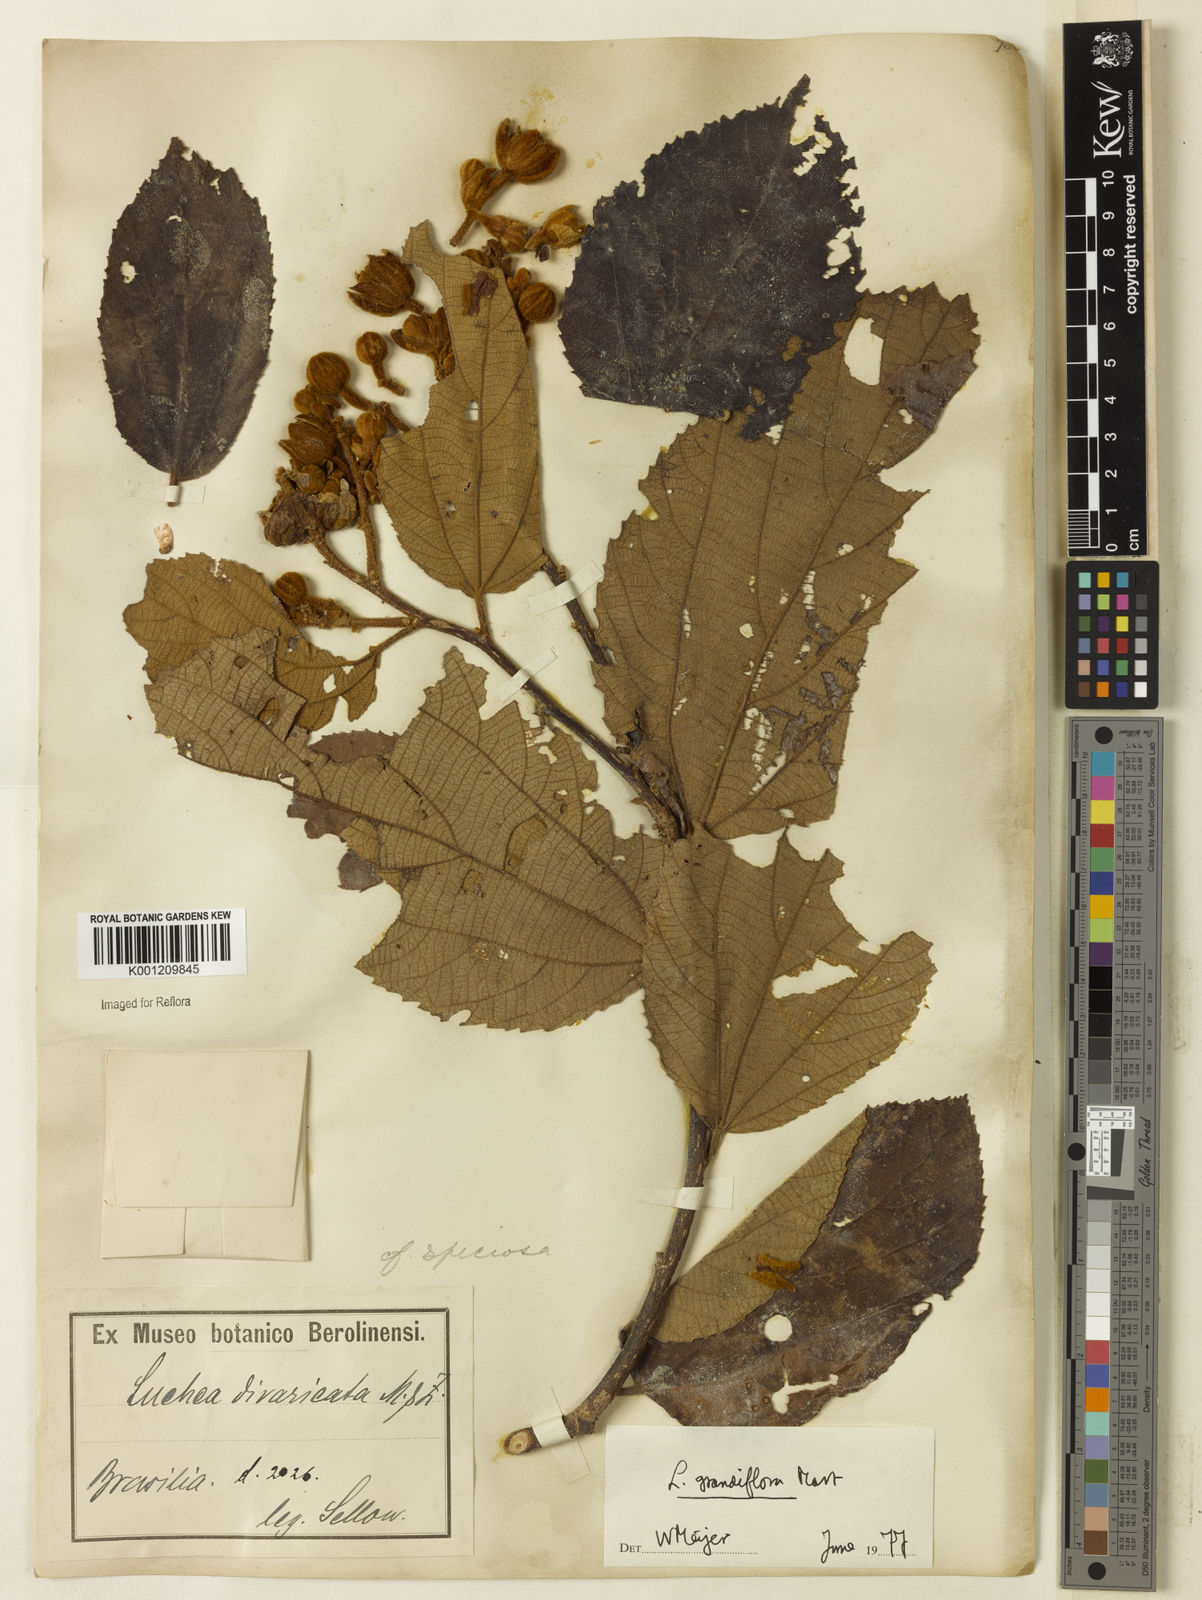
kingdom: Plantae
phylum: Tracheophyta
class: Magnoliopsida
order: Malvales
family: Malvaceae
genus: Luehea
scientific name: Luehea grandiflora
